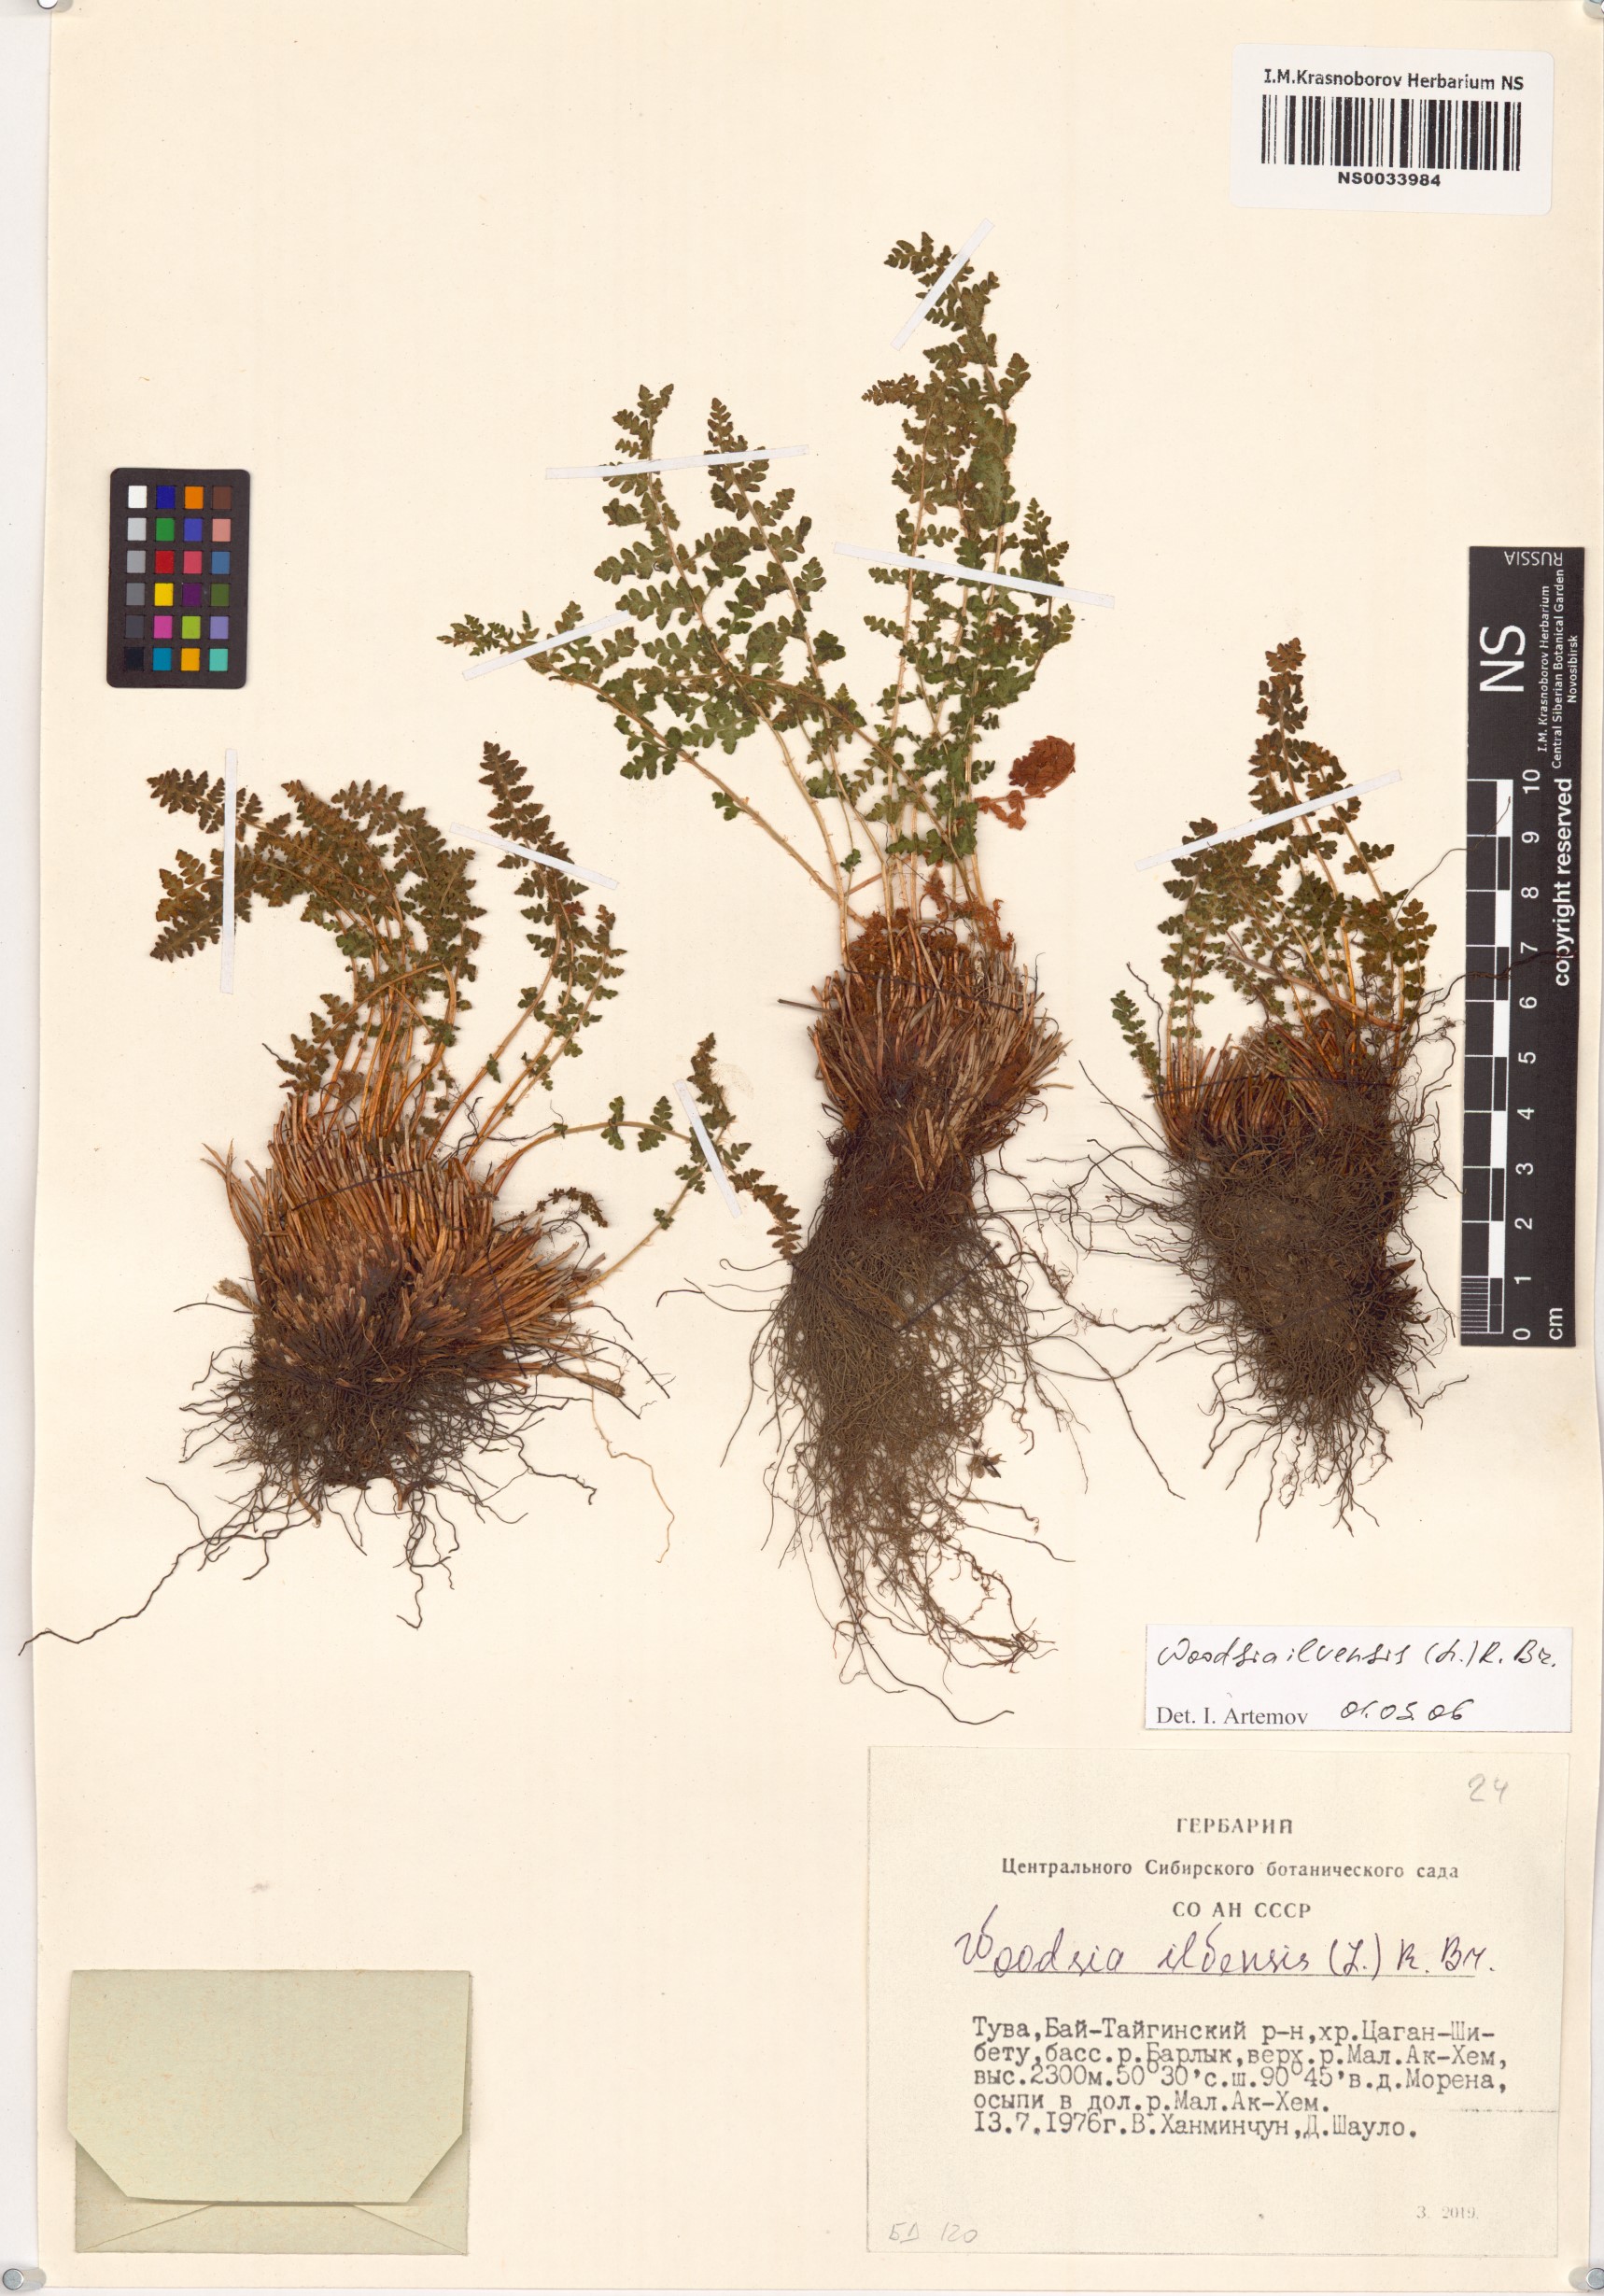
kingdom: Plantae
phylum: Tracheophyta
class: Polypodiopsida
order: Polypodiales
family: Woodsiaceae
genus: Woodsia
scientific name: Woodsia ilvensis
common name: Fragrant woodsia
